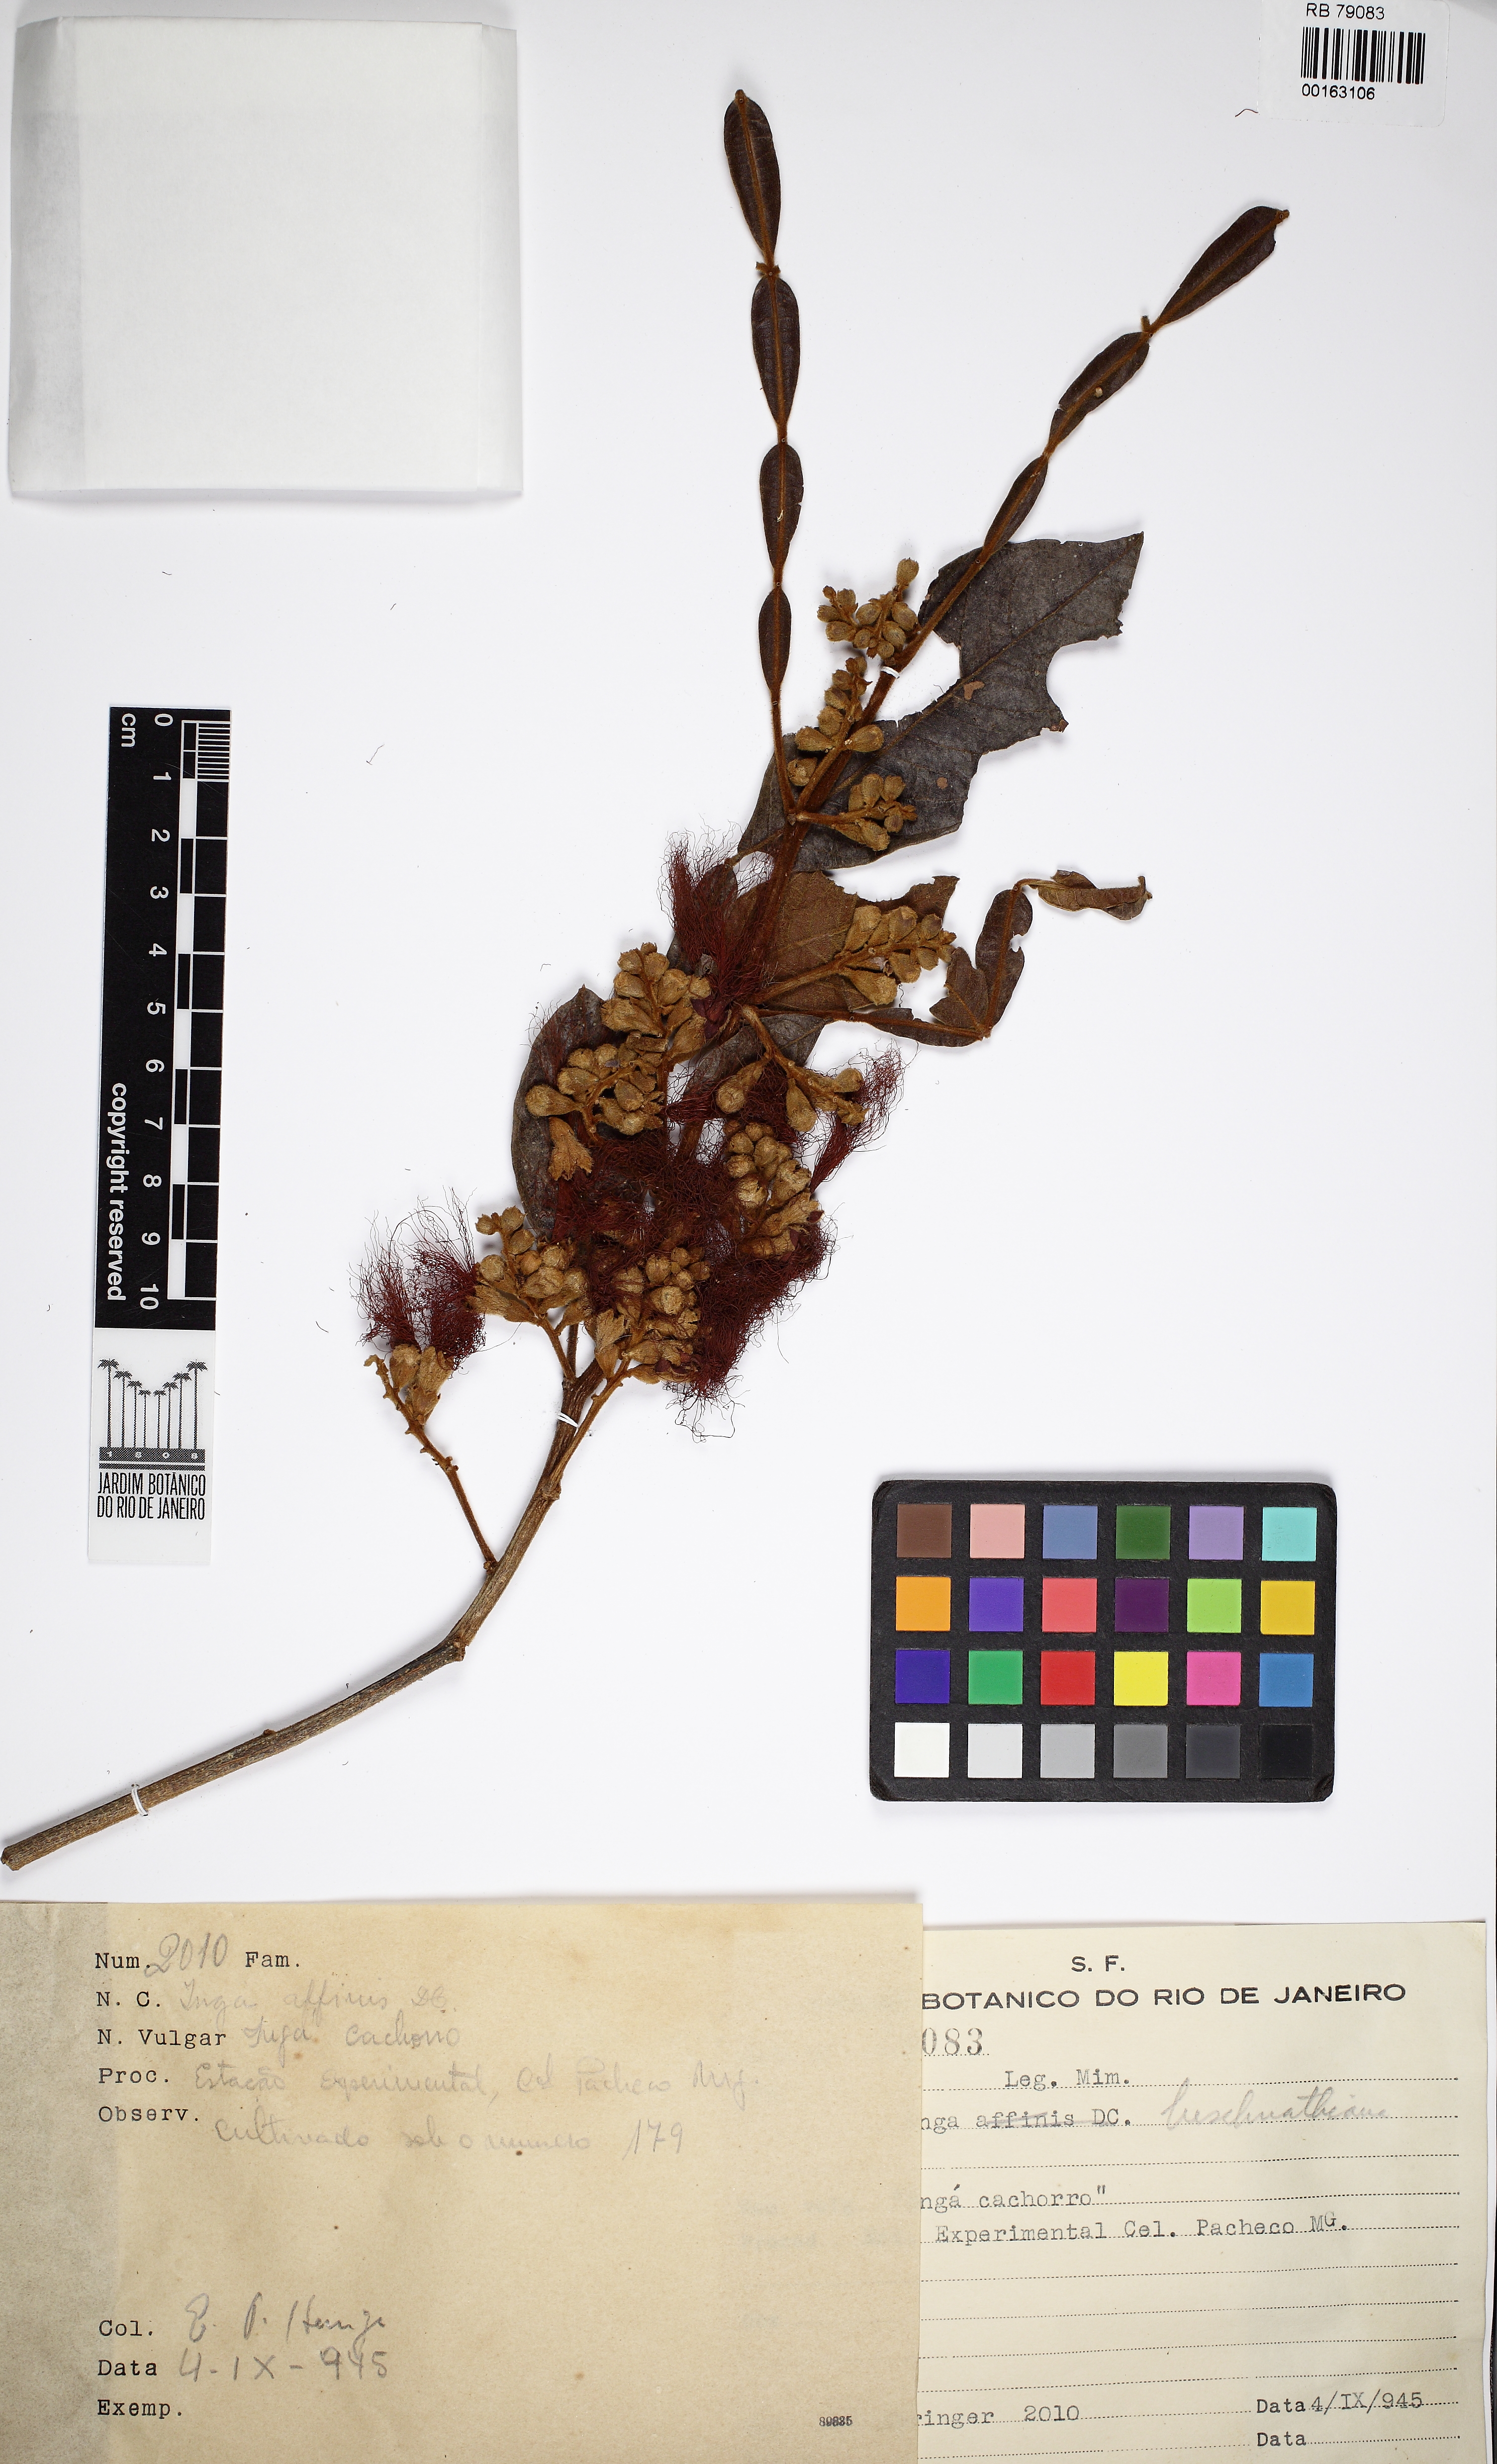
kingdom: Plantae
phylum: Tracheophyta
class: Magnoliopsida
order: Fabales
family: Fabaceae
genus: Inga
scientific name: Inga subnuda
